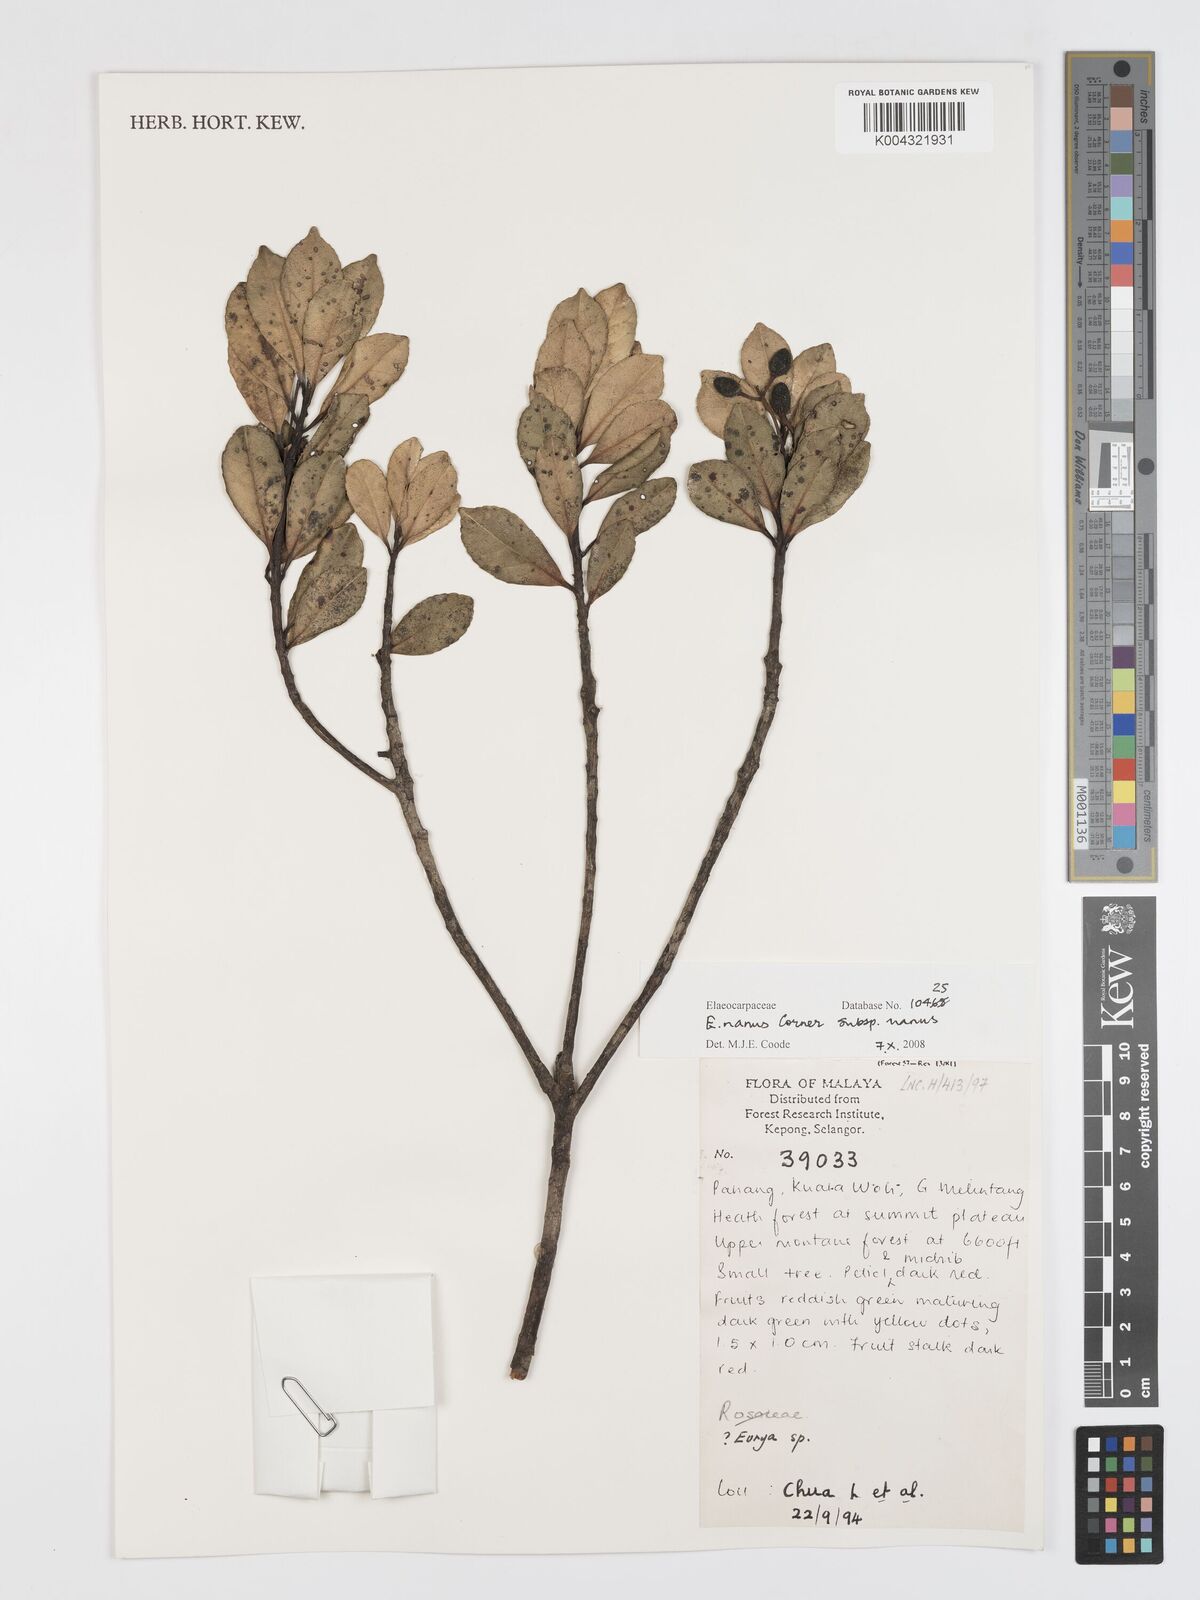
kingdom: Plantae
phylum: Tracheophyta
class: Magnoliopsida
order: Oxalidales
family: Elaeocarpaceae
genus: Elaeocarpus
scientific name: Elaeocarpus nanus
